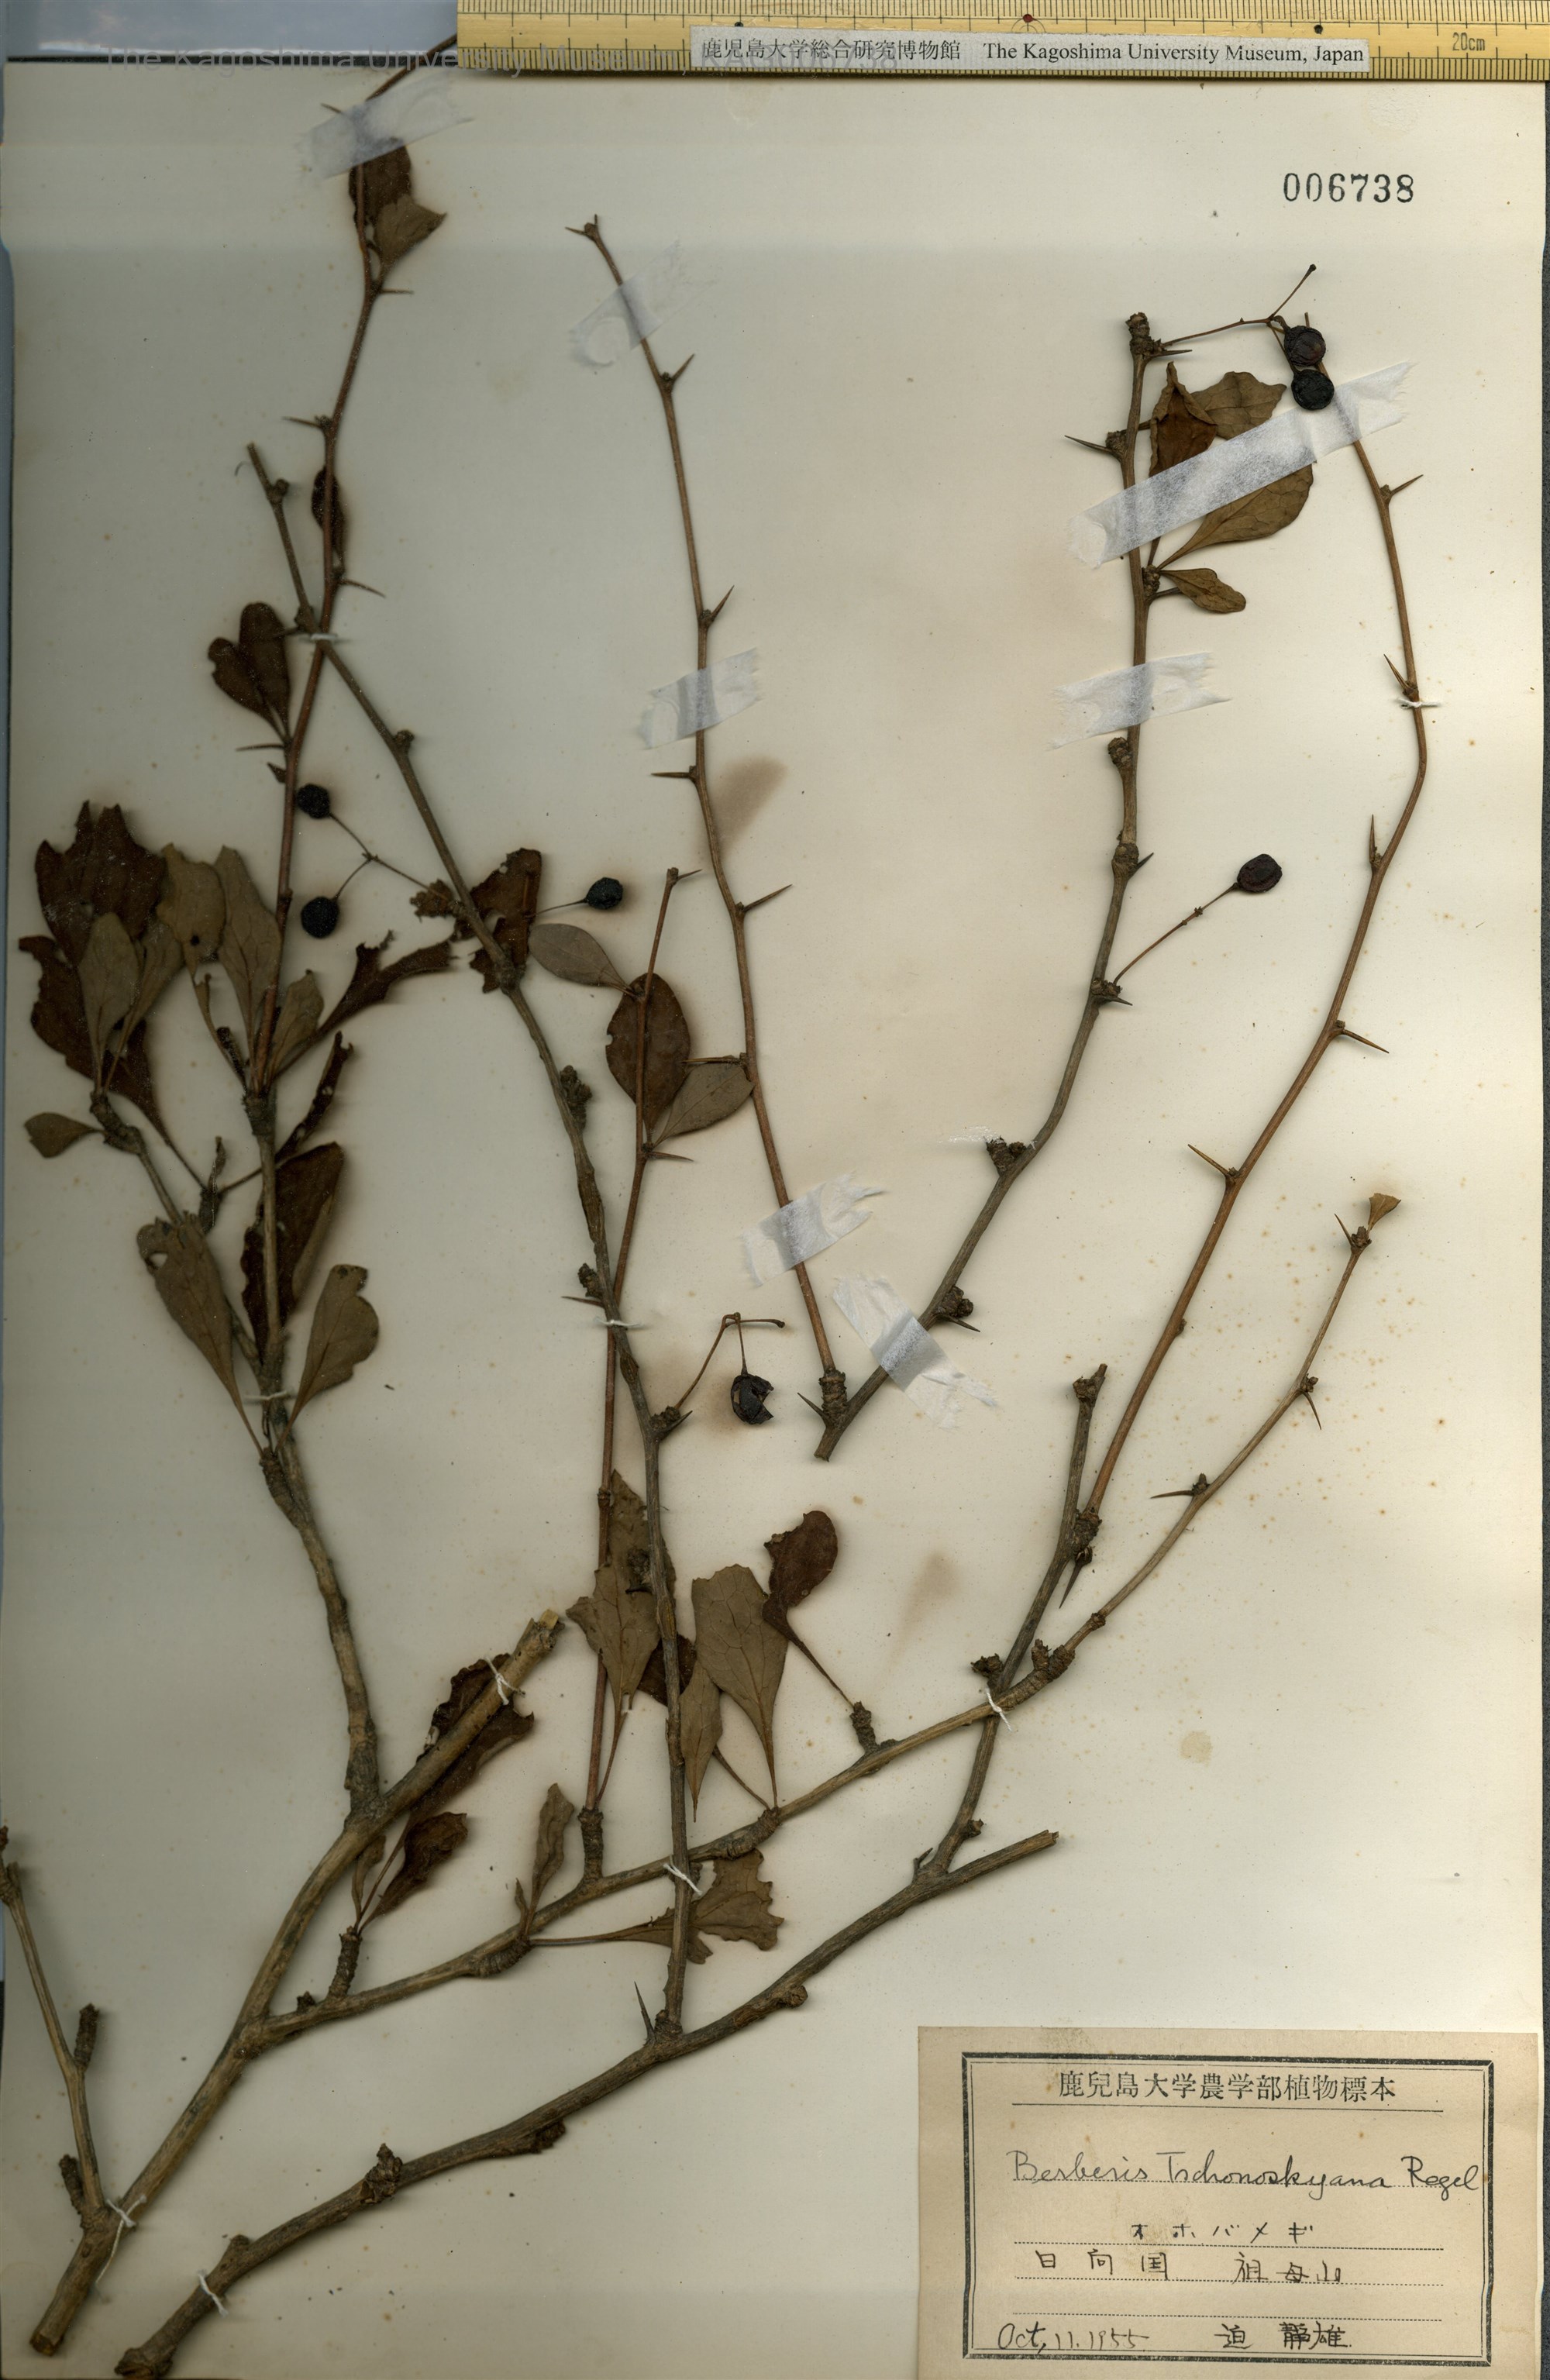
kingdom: Plantae
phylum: Tracheophyta
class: Magnoliopsida
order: Ranunculales
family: Berberidaceae
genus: Berberis
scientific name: Berberis tschonoskyana
